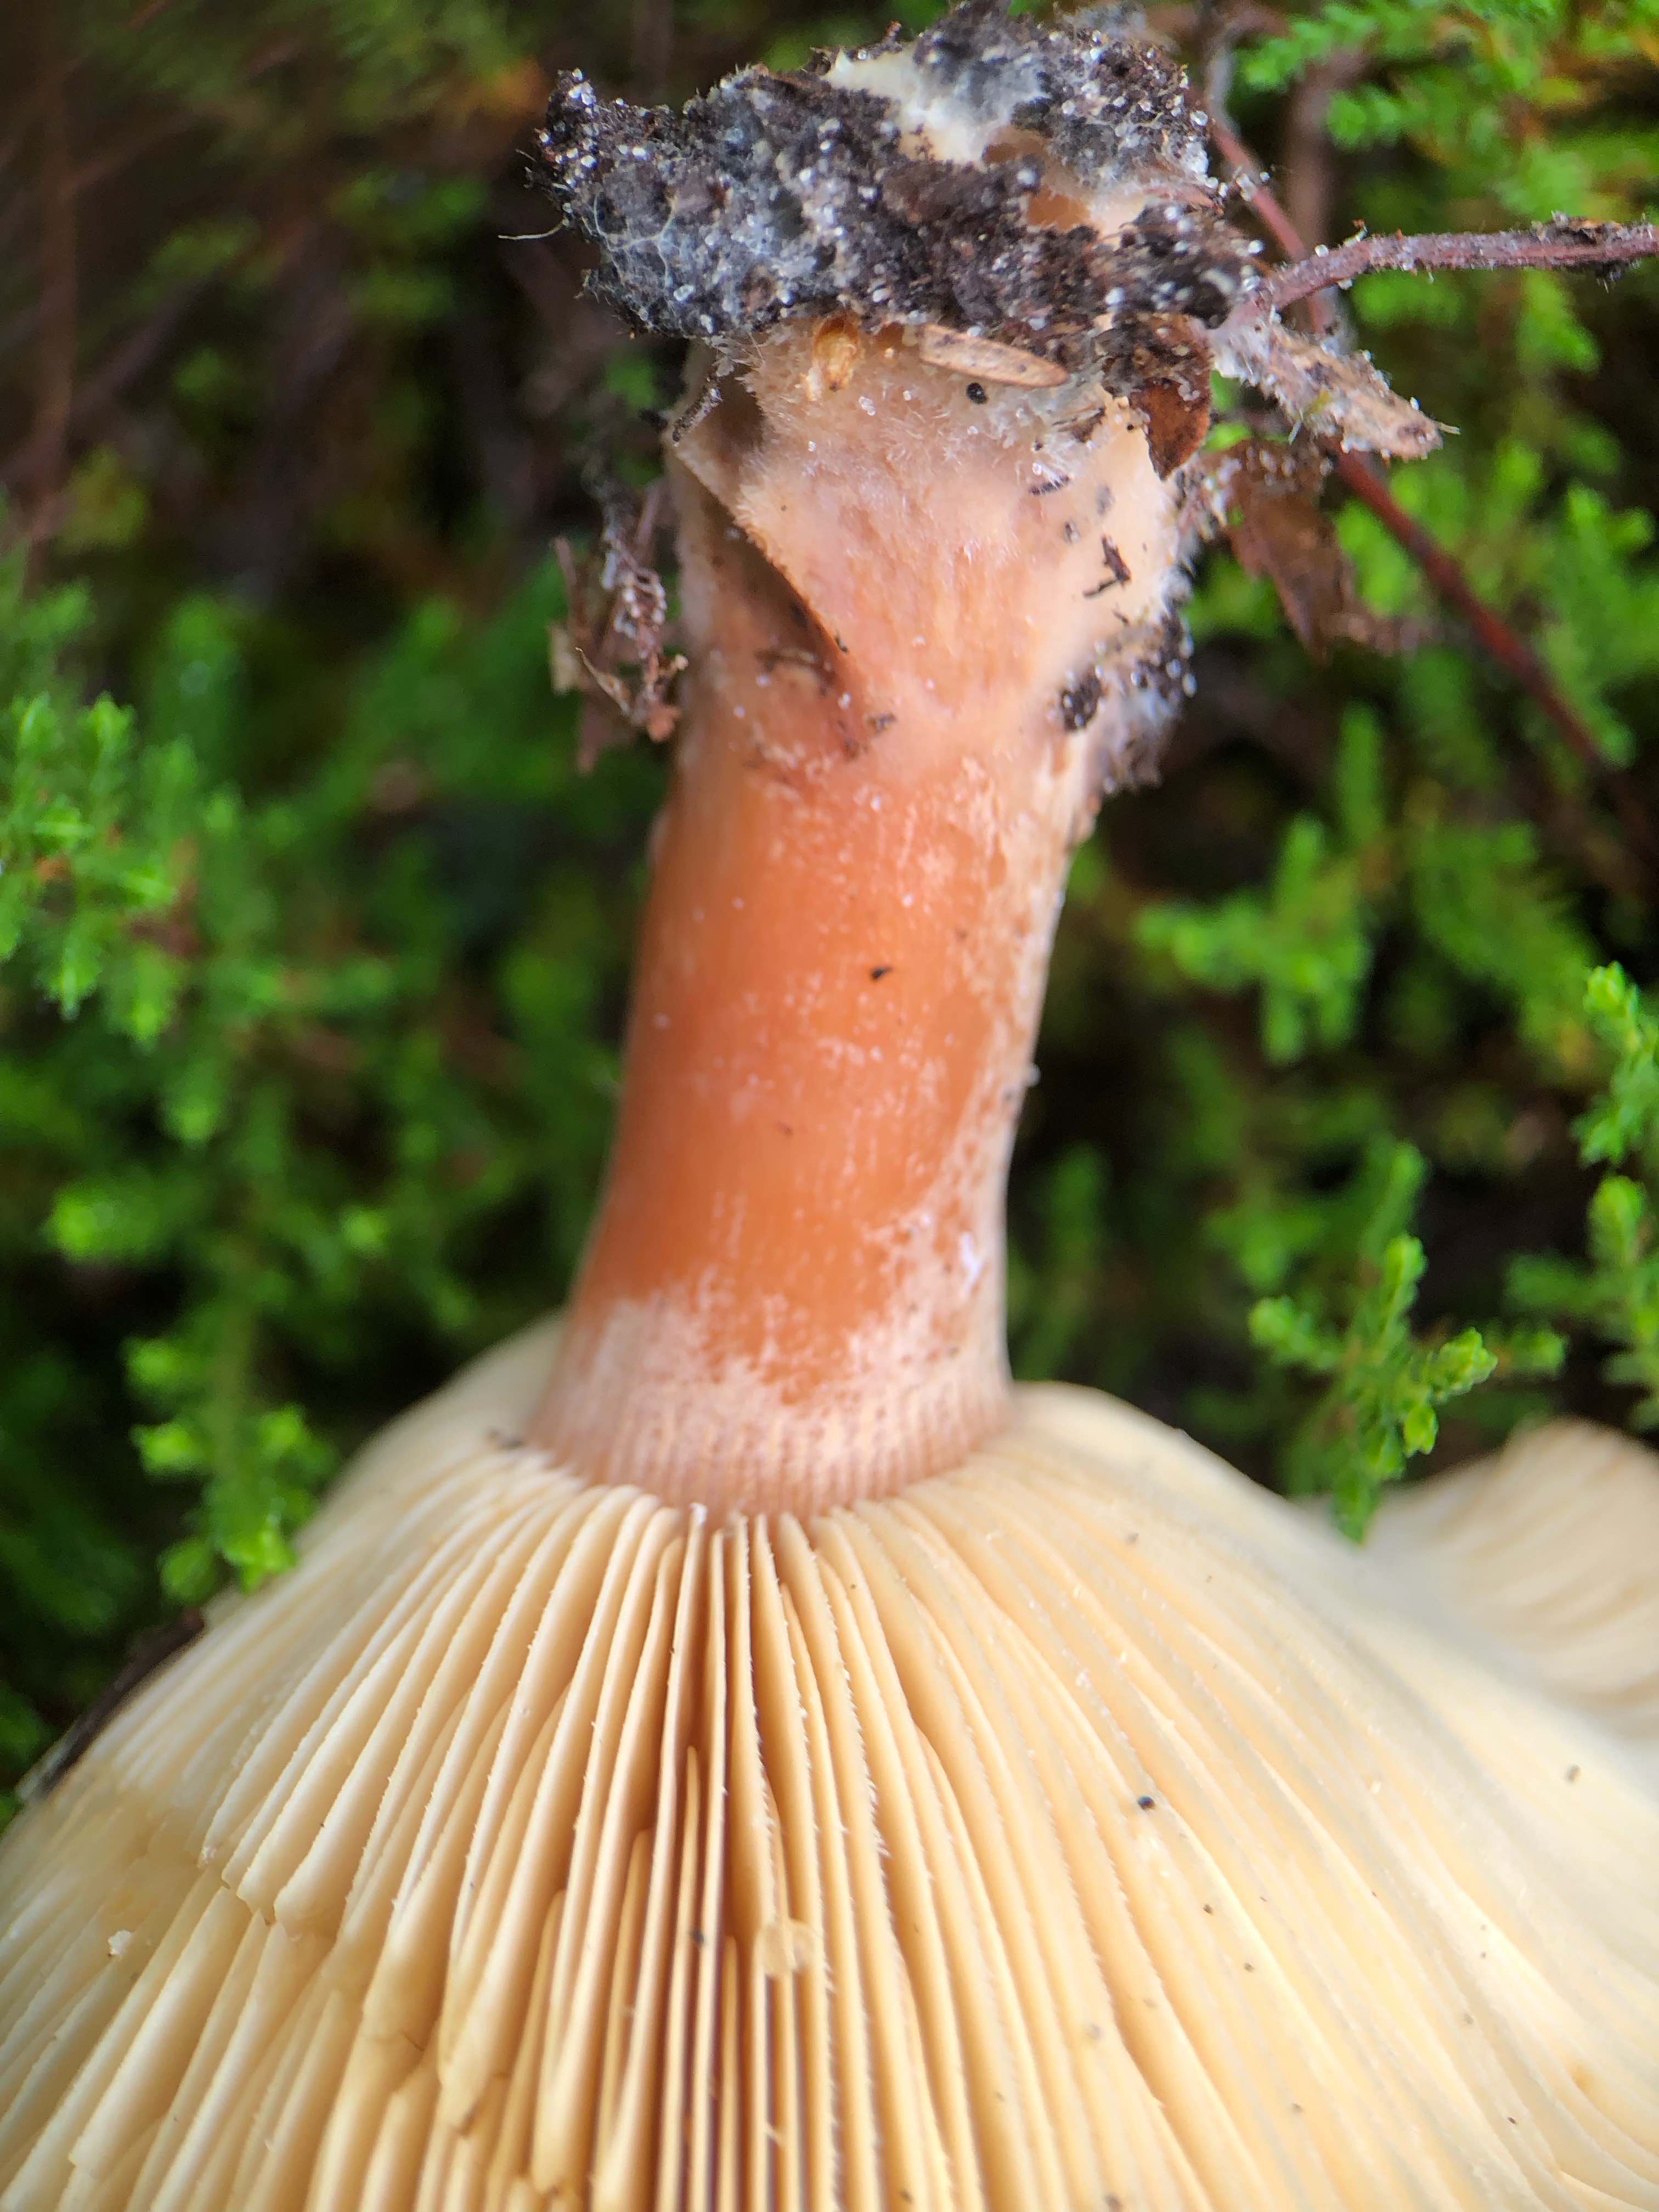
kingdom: Fungi
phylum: Basidiomycota
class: Agaricomycetes
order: Russulales
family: Russulaceae
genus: Lactarius
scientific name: Lactarius helvus
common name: mose-mælkehat
